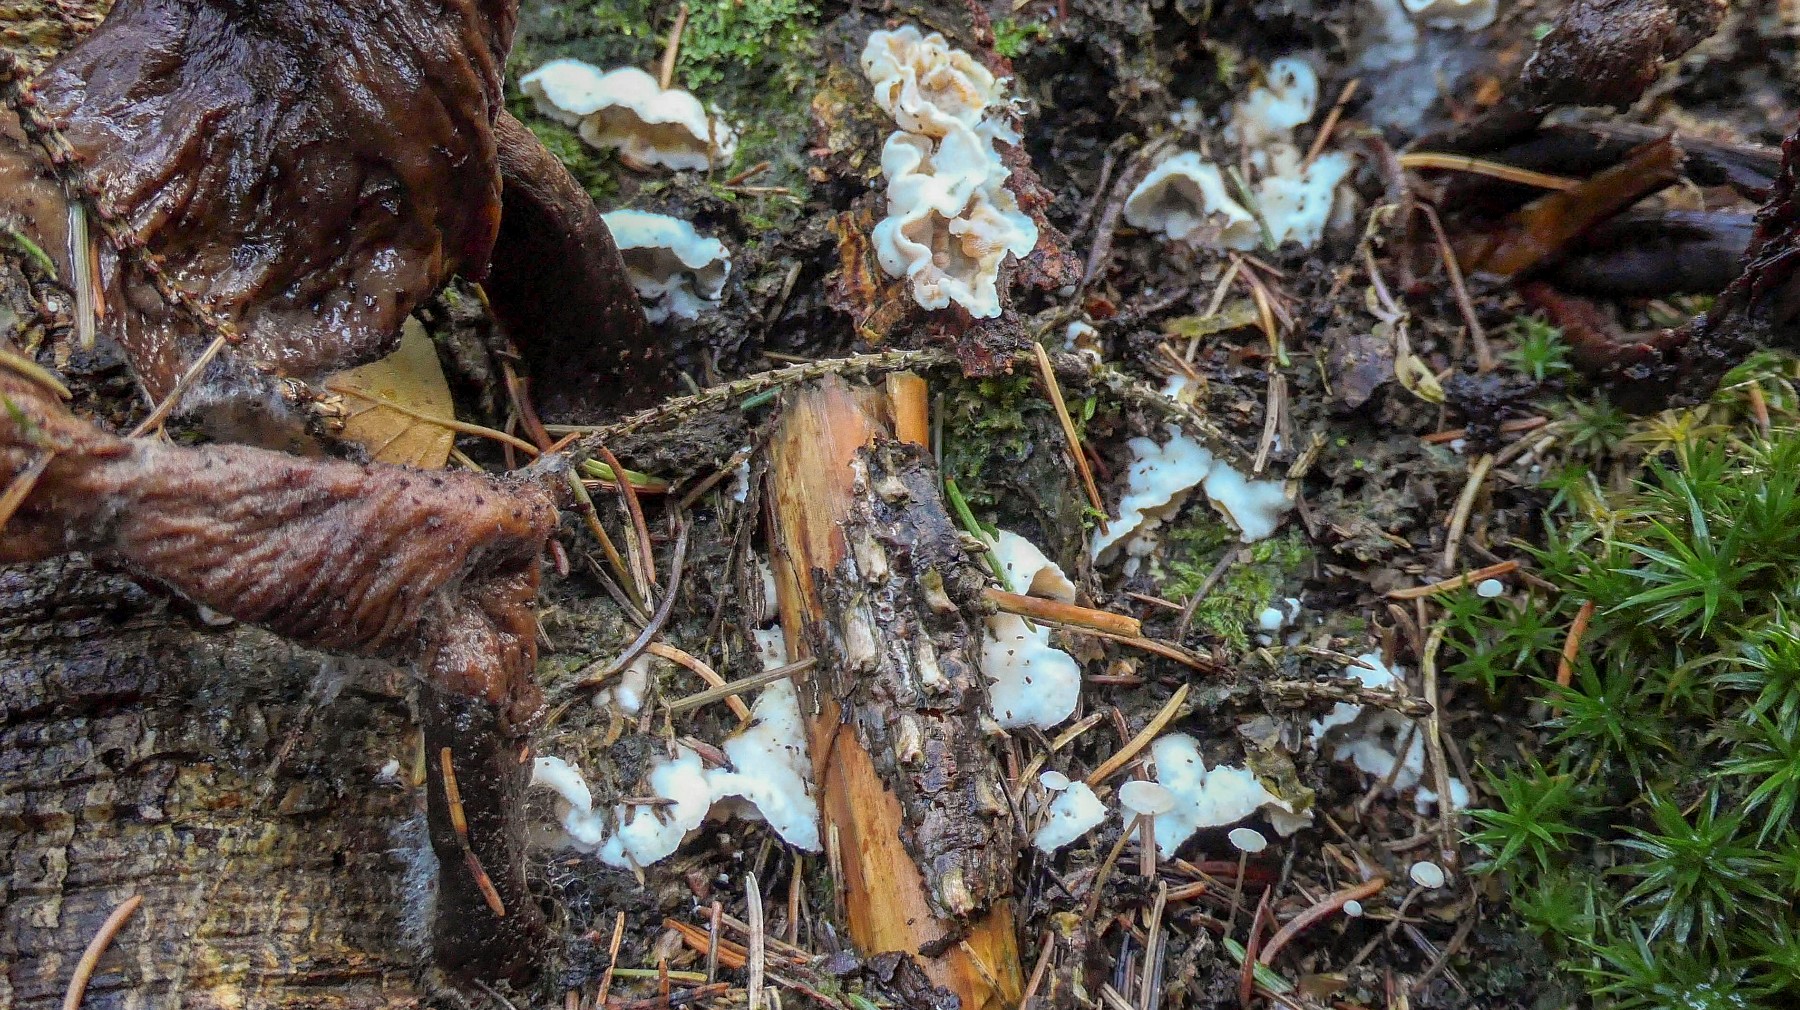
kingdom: Fungi
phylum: Basidiomycota
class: Agaricomycetes
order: Polyporales
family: Incrustoporiaceae
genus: Skeletocutis
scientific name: Skeletocutis amorpha
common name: orange krystalporesvamp
